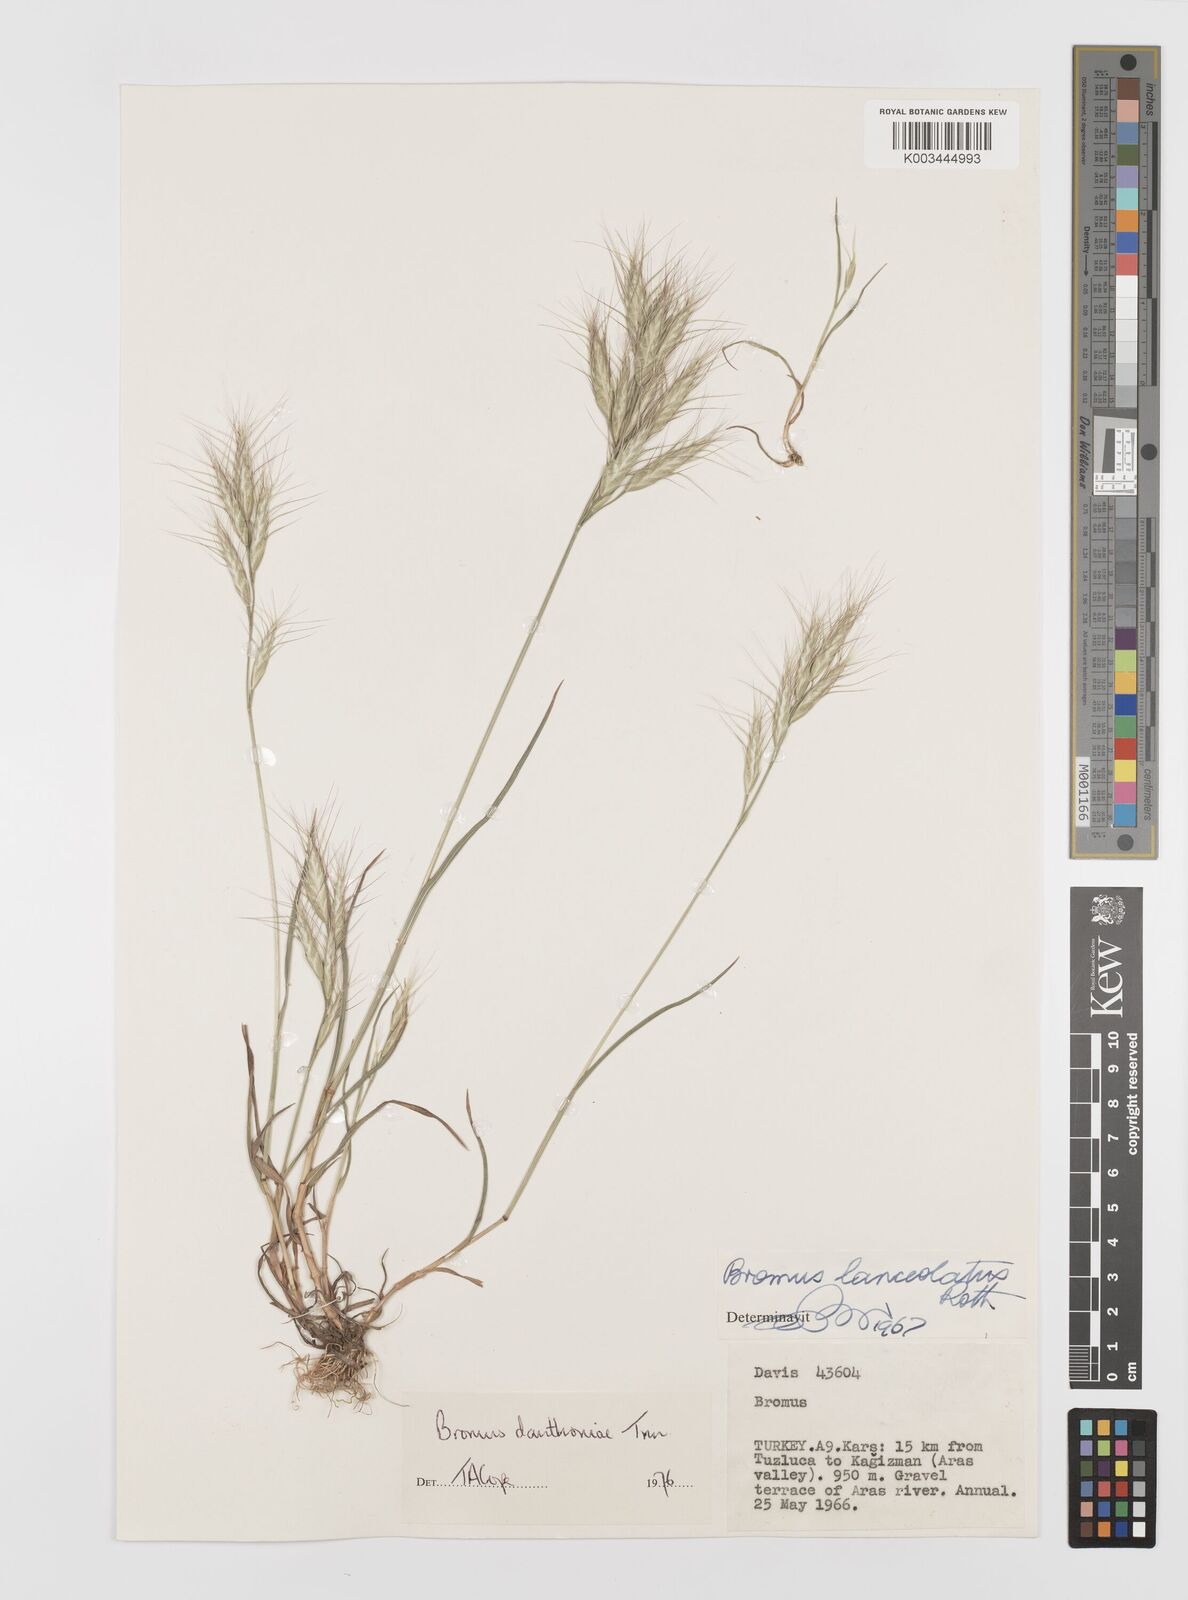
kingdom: Plantae
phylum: Tracheophyta
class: Liliopsida
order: Poales
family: Poaceae
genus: Bromus
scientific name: Bromus danthoniae
